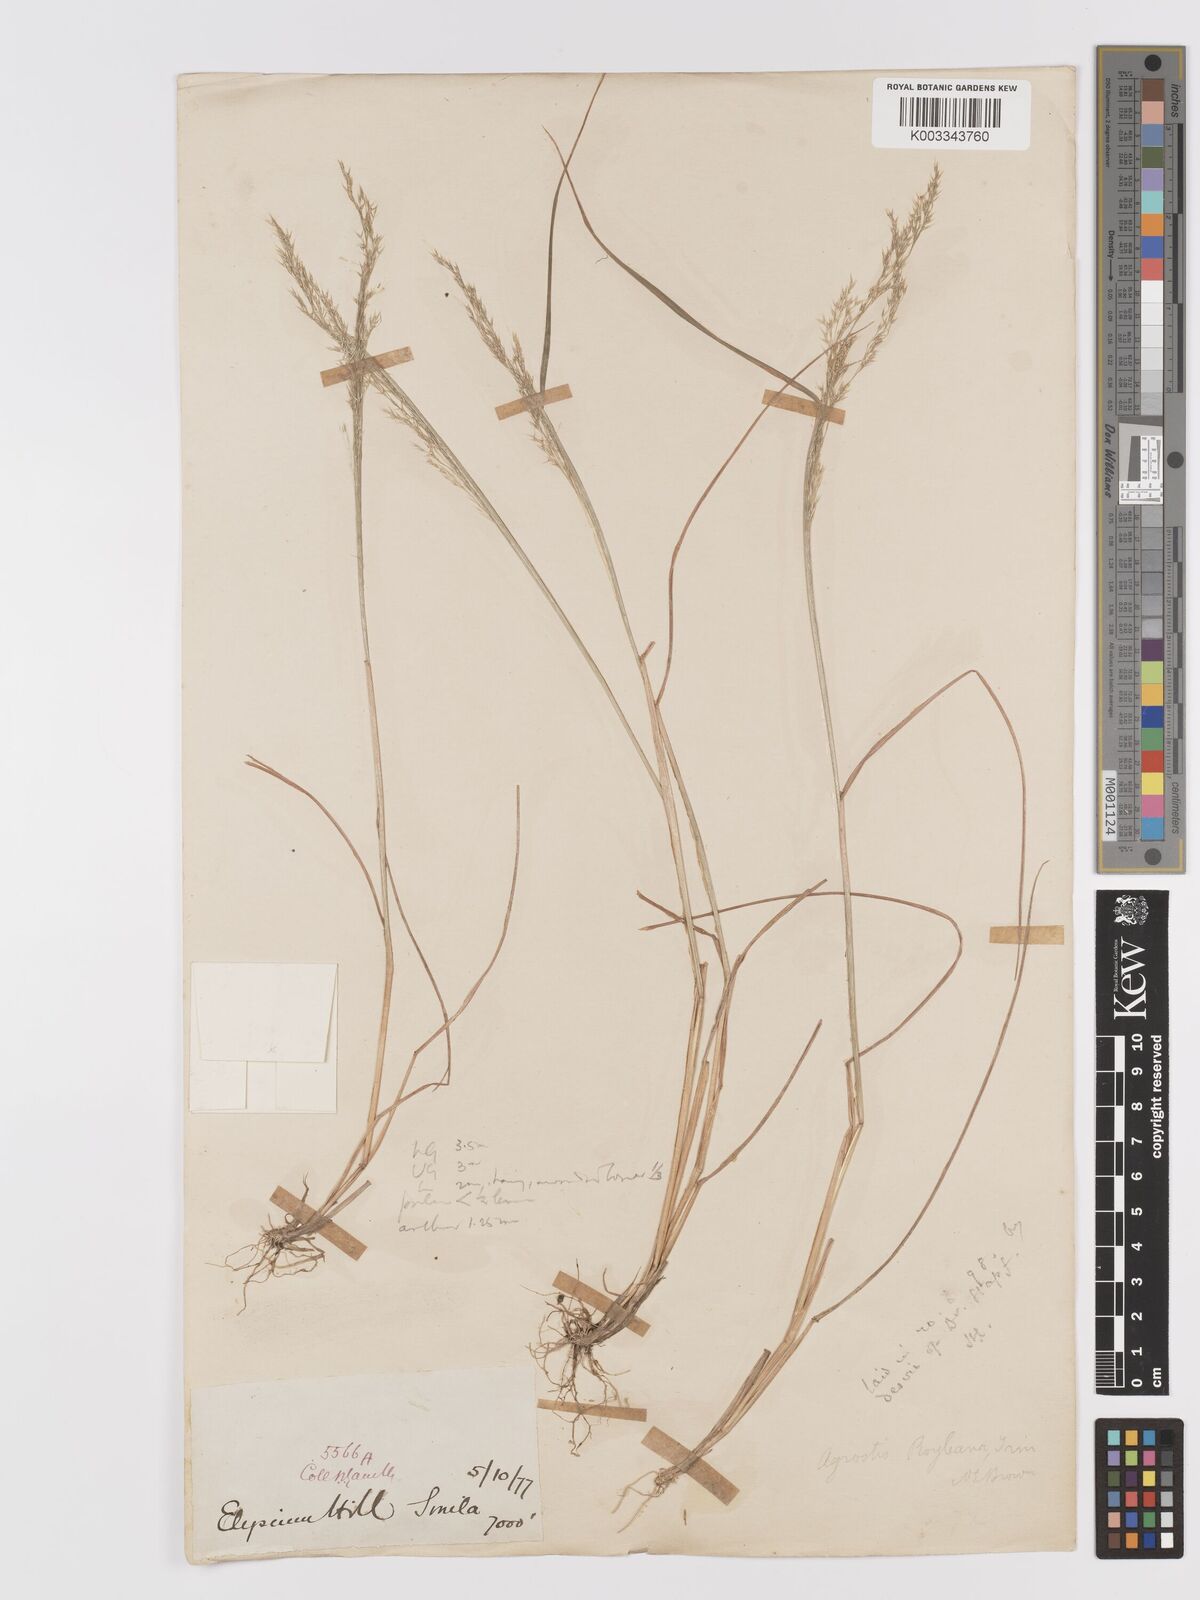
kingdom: Plantae
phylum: Tracheophyta
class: Liliopsida
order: Poales
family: Poaceae
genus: Agrostis
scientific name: Agrostis pilosula
